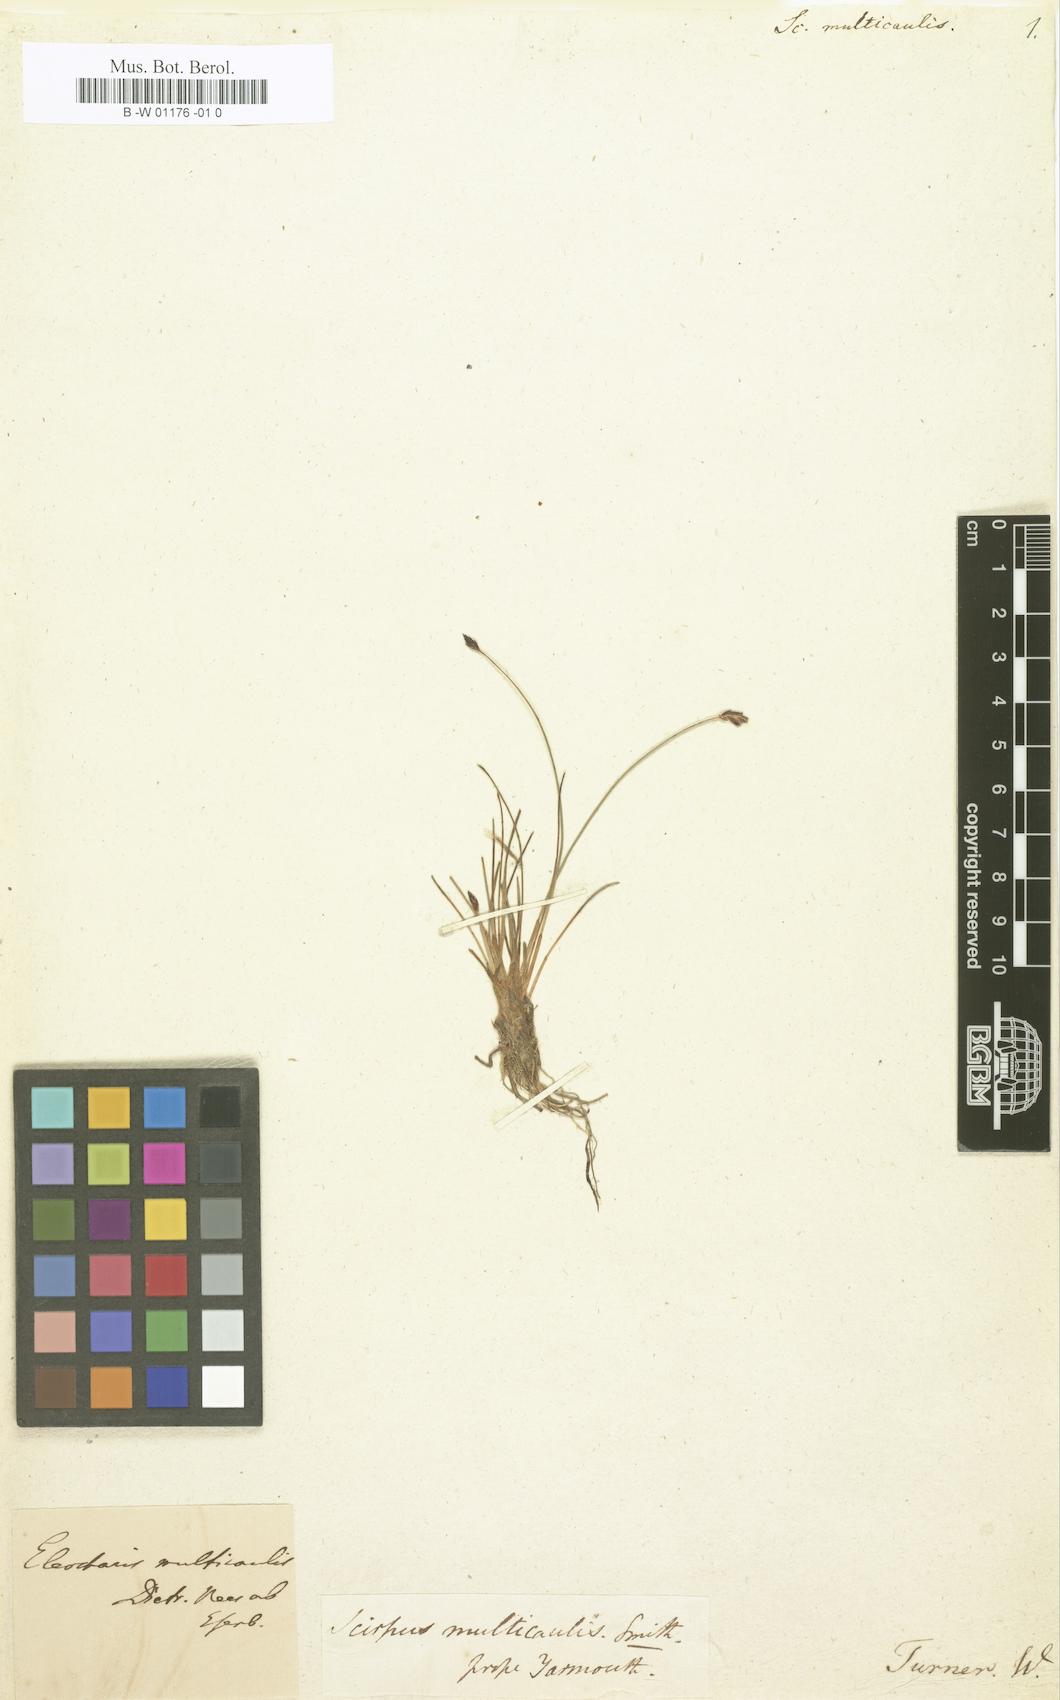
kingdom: Plantae
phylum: Tracheophyta
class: Liliopsida
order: Poales
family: Cyperaceae
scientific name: Cyperaceae
